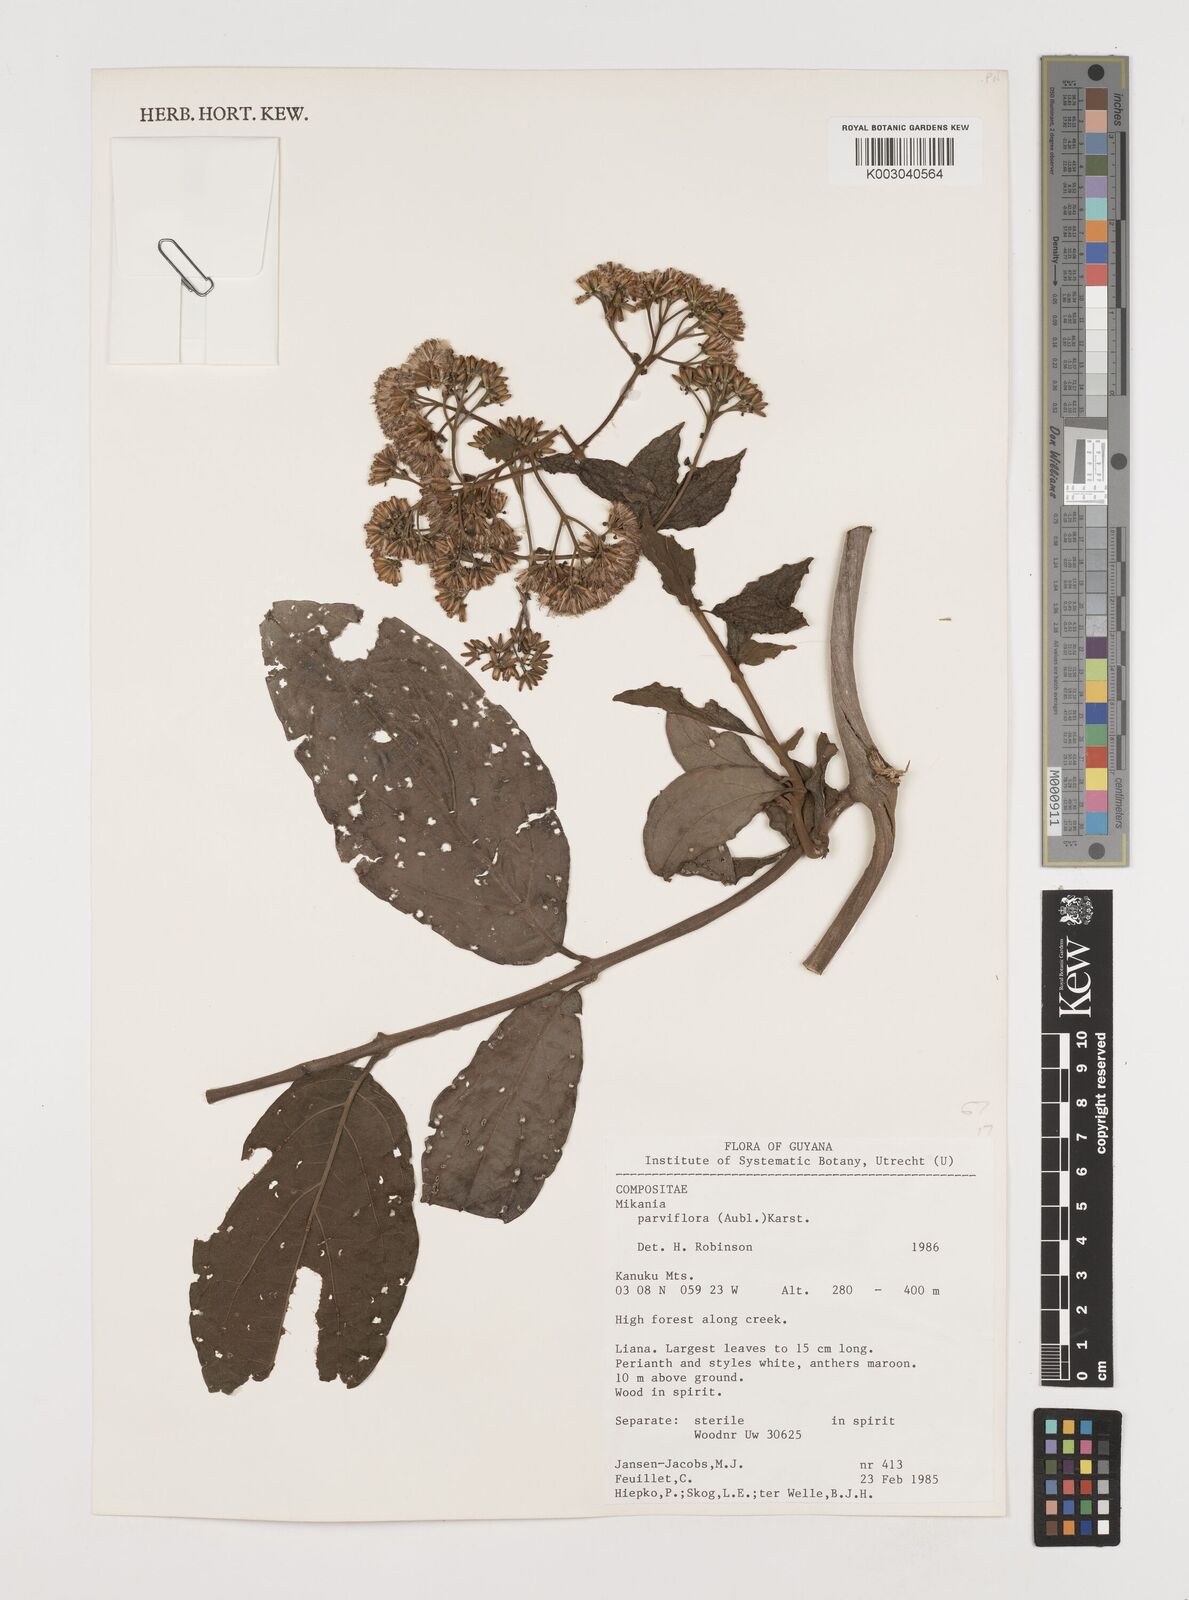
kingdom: Plantae
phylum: Tracheophyta
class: Magnoliopsida
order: Asterales
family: Asteraceae
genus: Mikania
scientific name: Mikania parviflora
